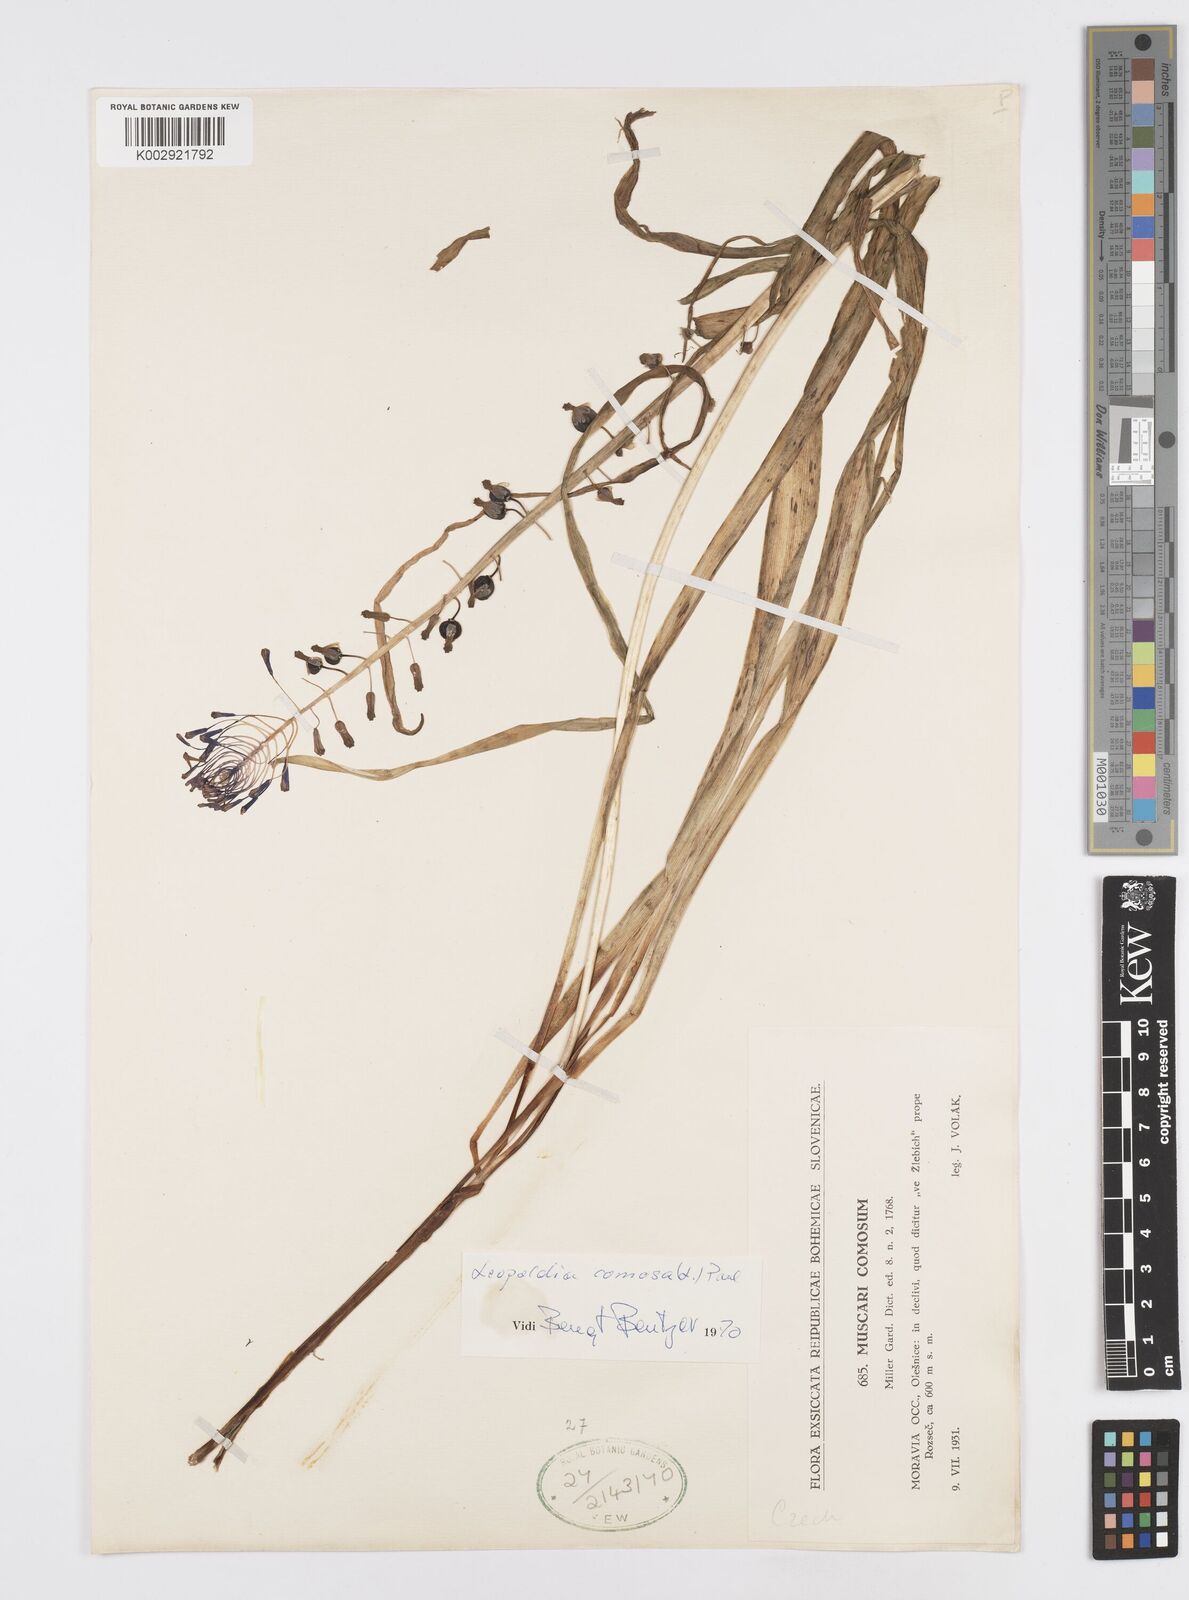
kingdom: Plantae
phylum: Tracheophyta
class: Liliopsida
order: Asparagales
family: Asparagaceae
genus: Muscari
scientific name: Muscari comosum
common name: Tassel hyacinth
